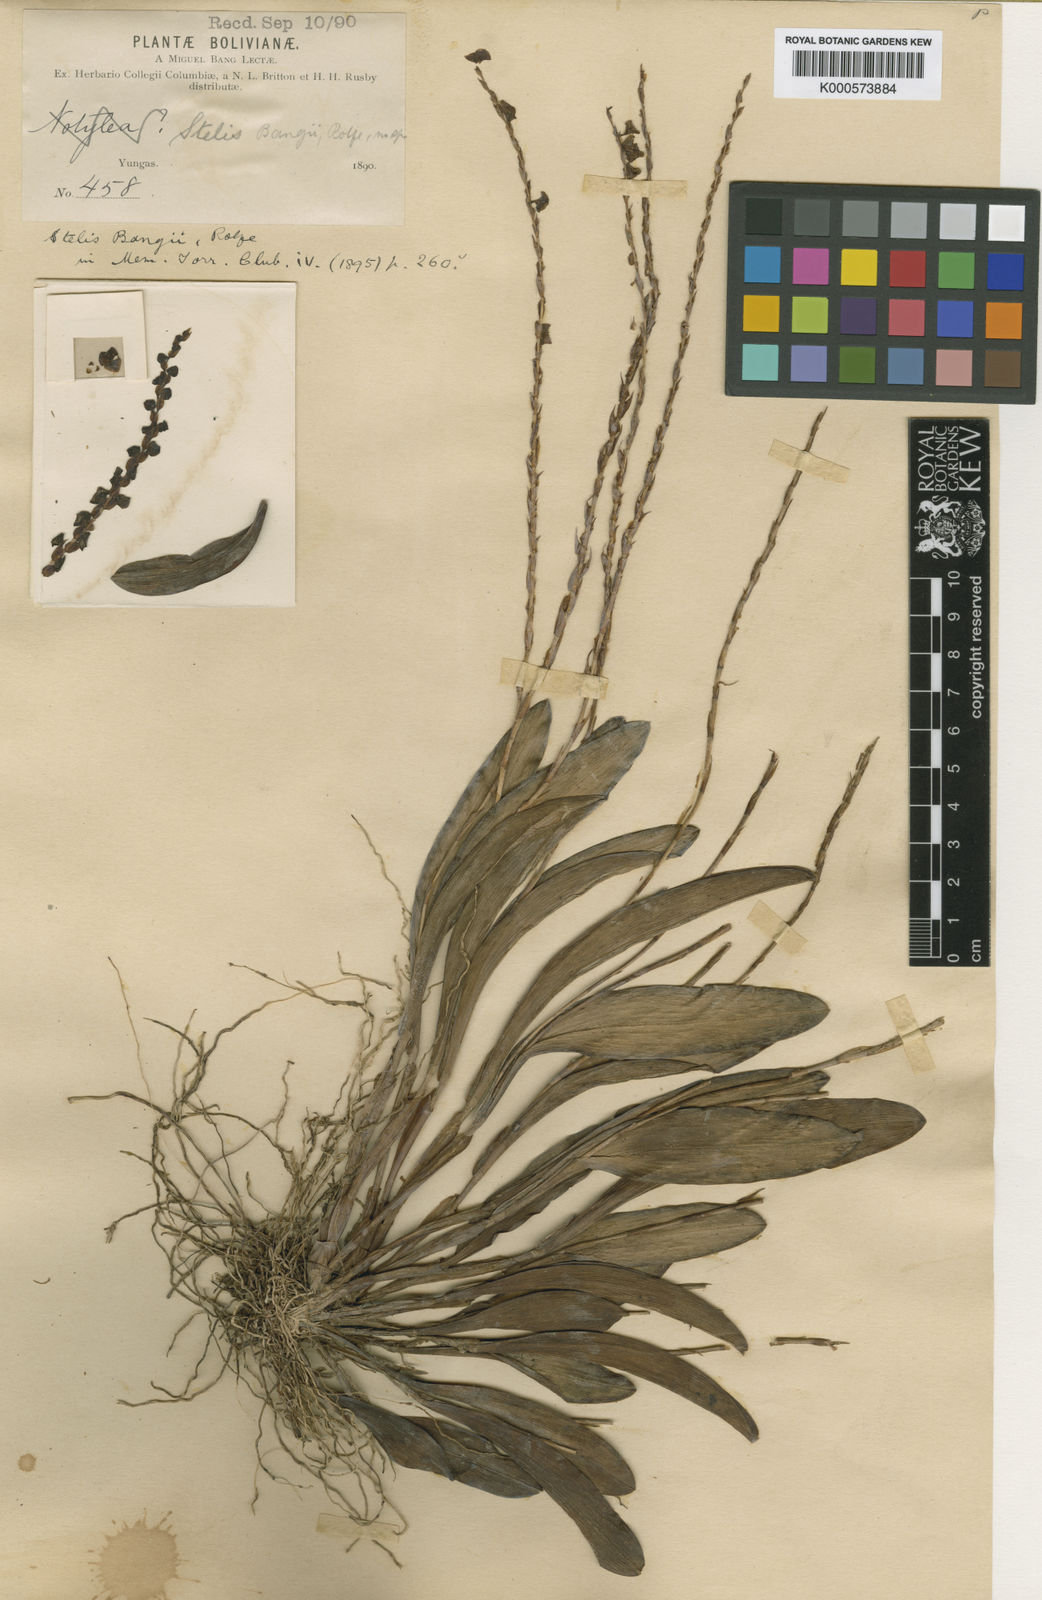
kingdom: Plantae
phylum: Tracheophyta
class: Liliopsida
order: Asparagales
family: Orchidaceae
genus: Stelis
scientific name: Stelis grandiflora
